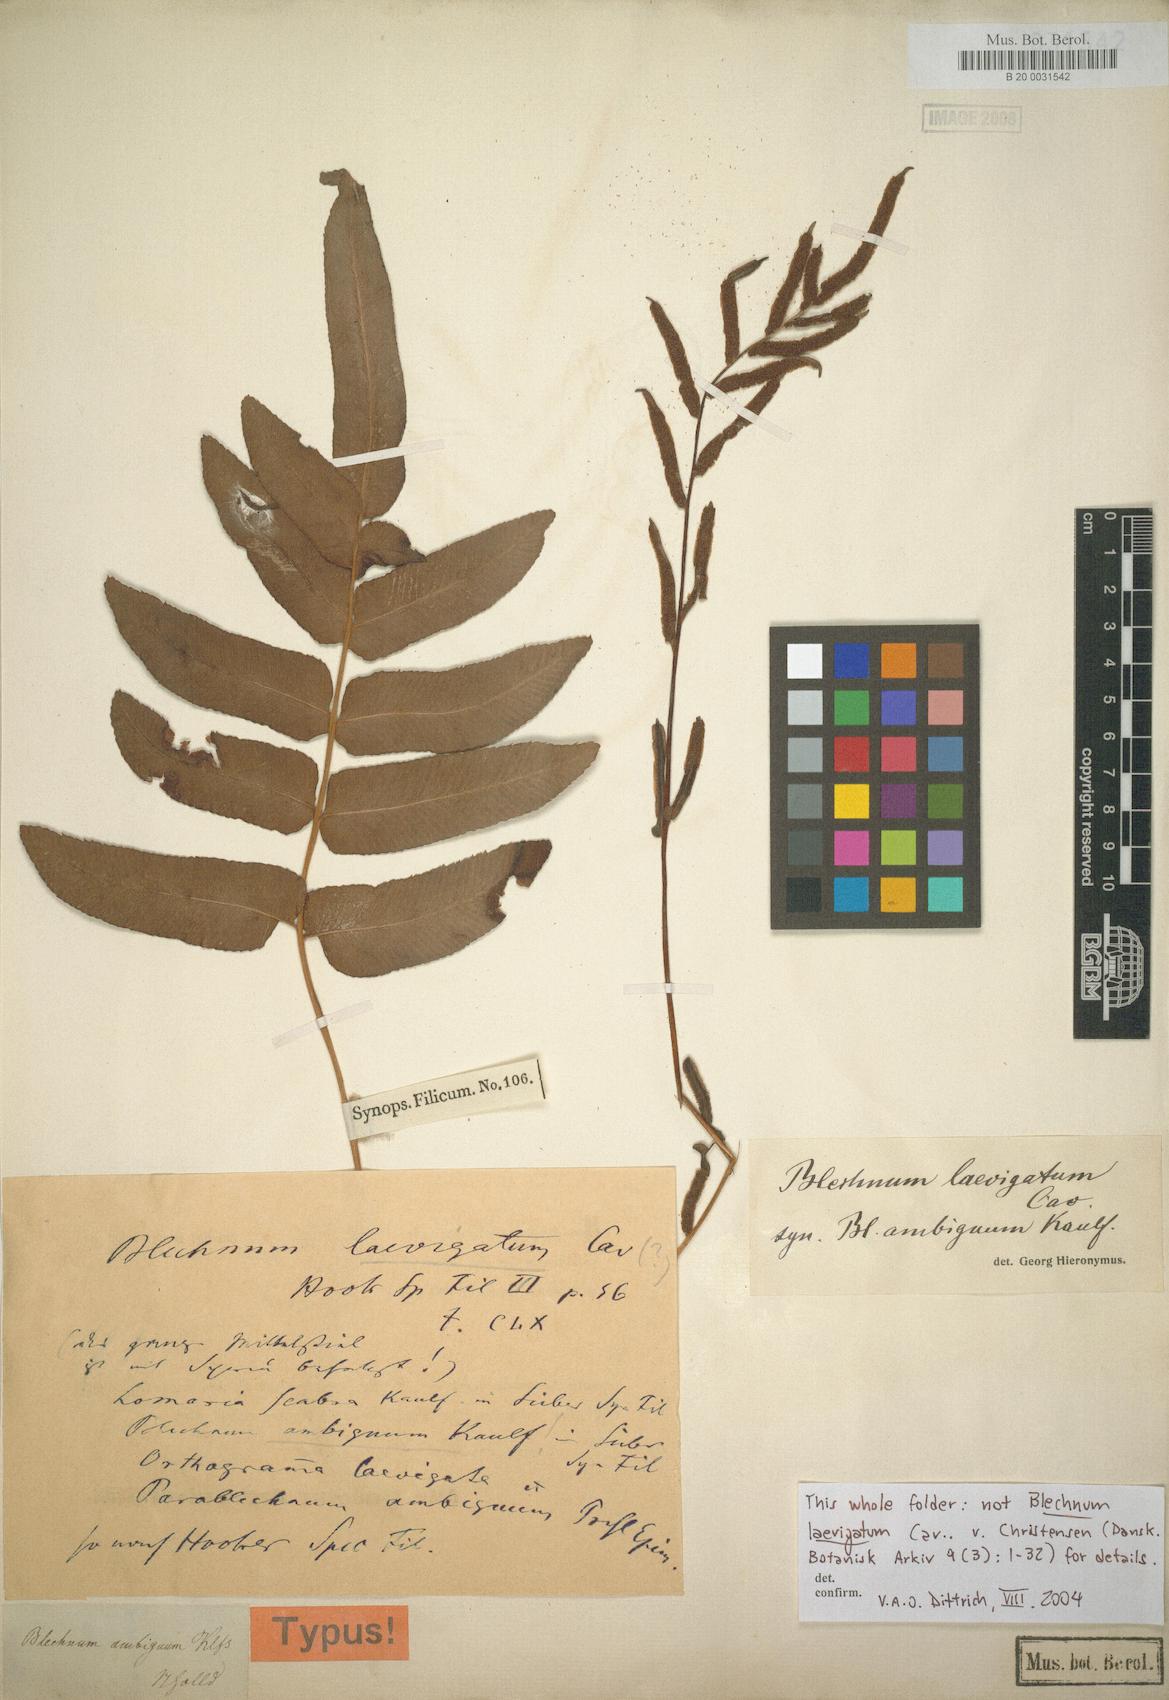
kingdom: Plantae
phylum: Tracheophyta
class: Polypodiopsida
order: Polypodiales
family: Blechnaceae
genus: Blechnum
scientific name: Blechnum laevigatum
